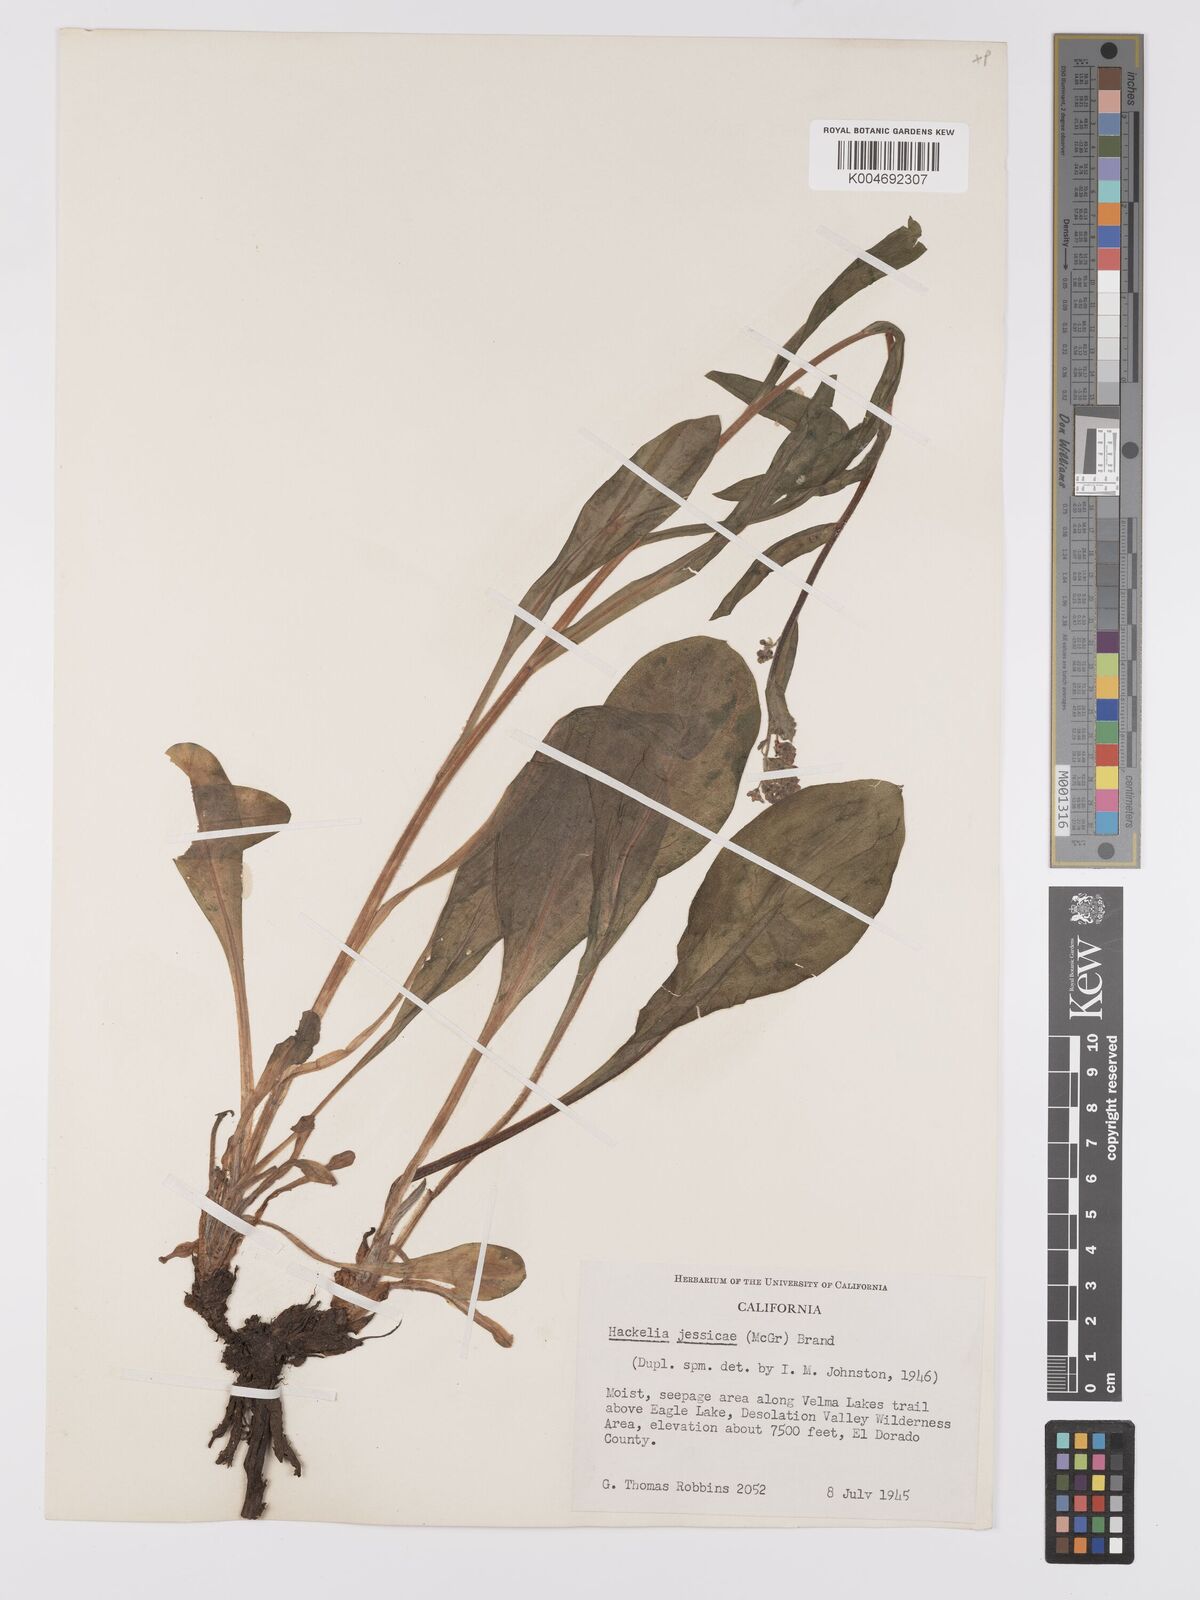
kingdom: Plantae
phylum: Tracheophyta
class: Magnoliopsida
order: Boraginales
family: Boraginaceae
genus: Hackelia
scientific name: Hackelia micrantha
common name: Meadow stickseed
